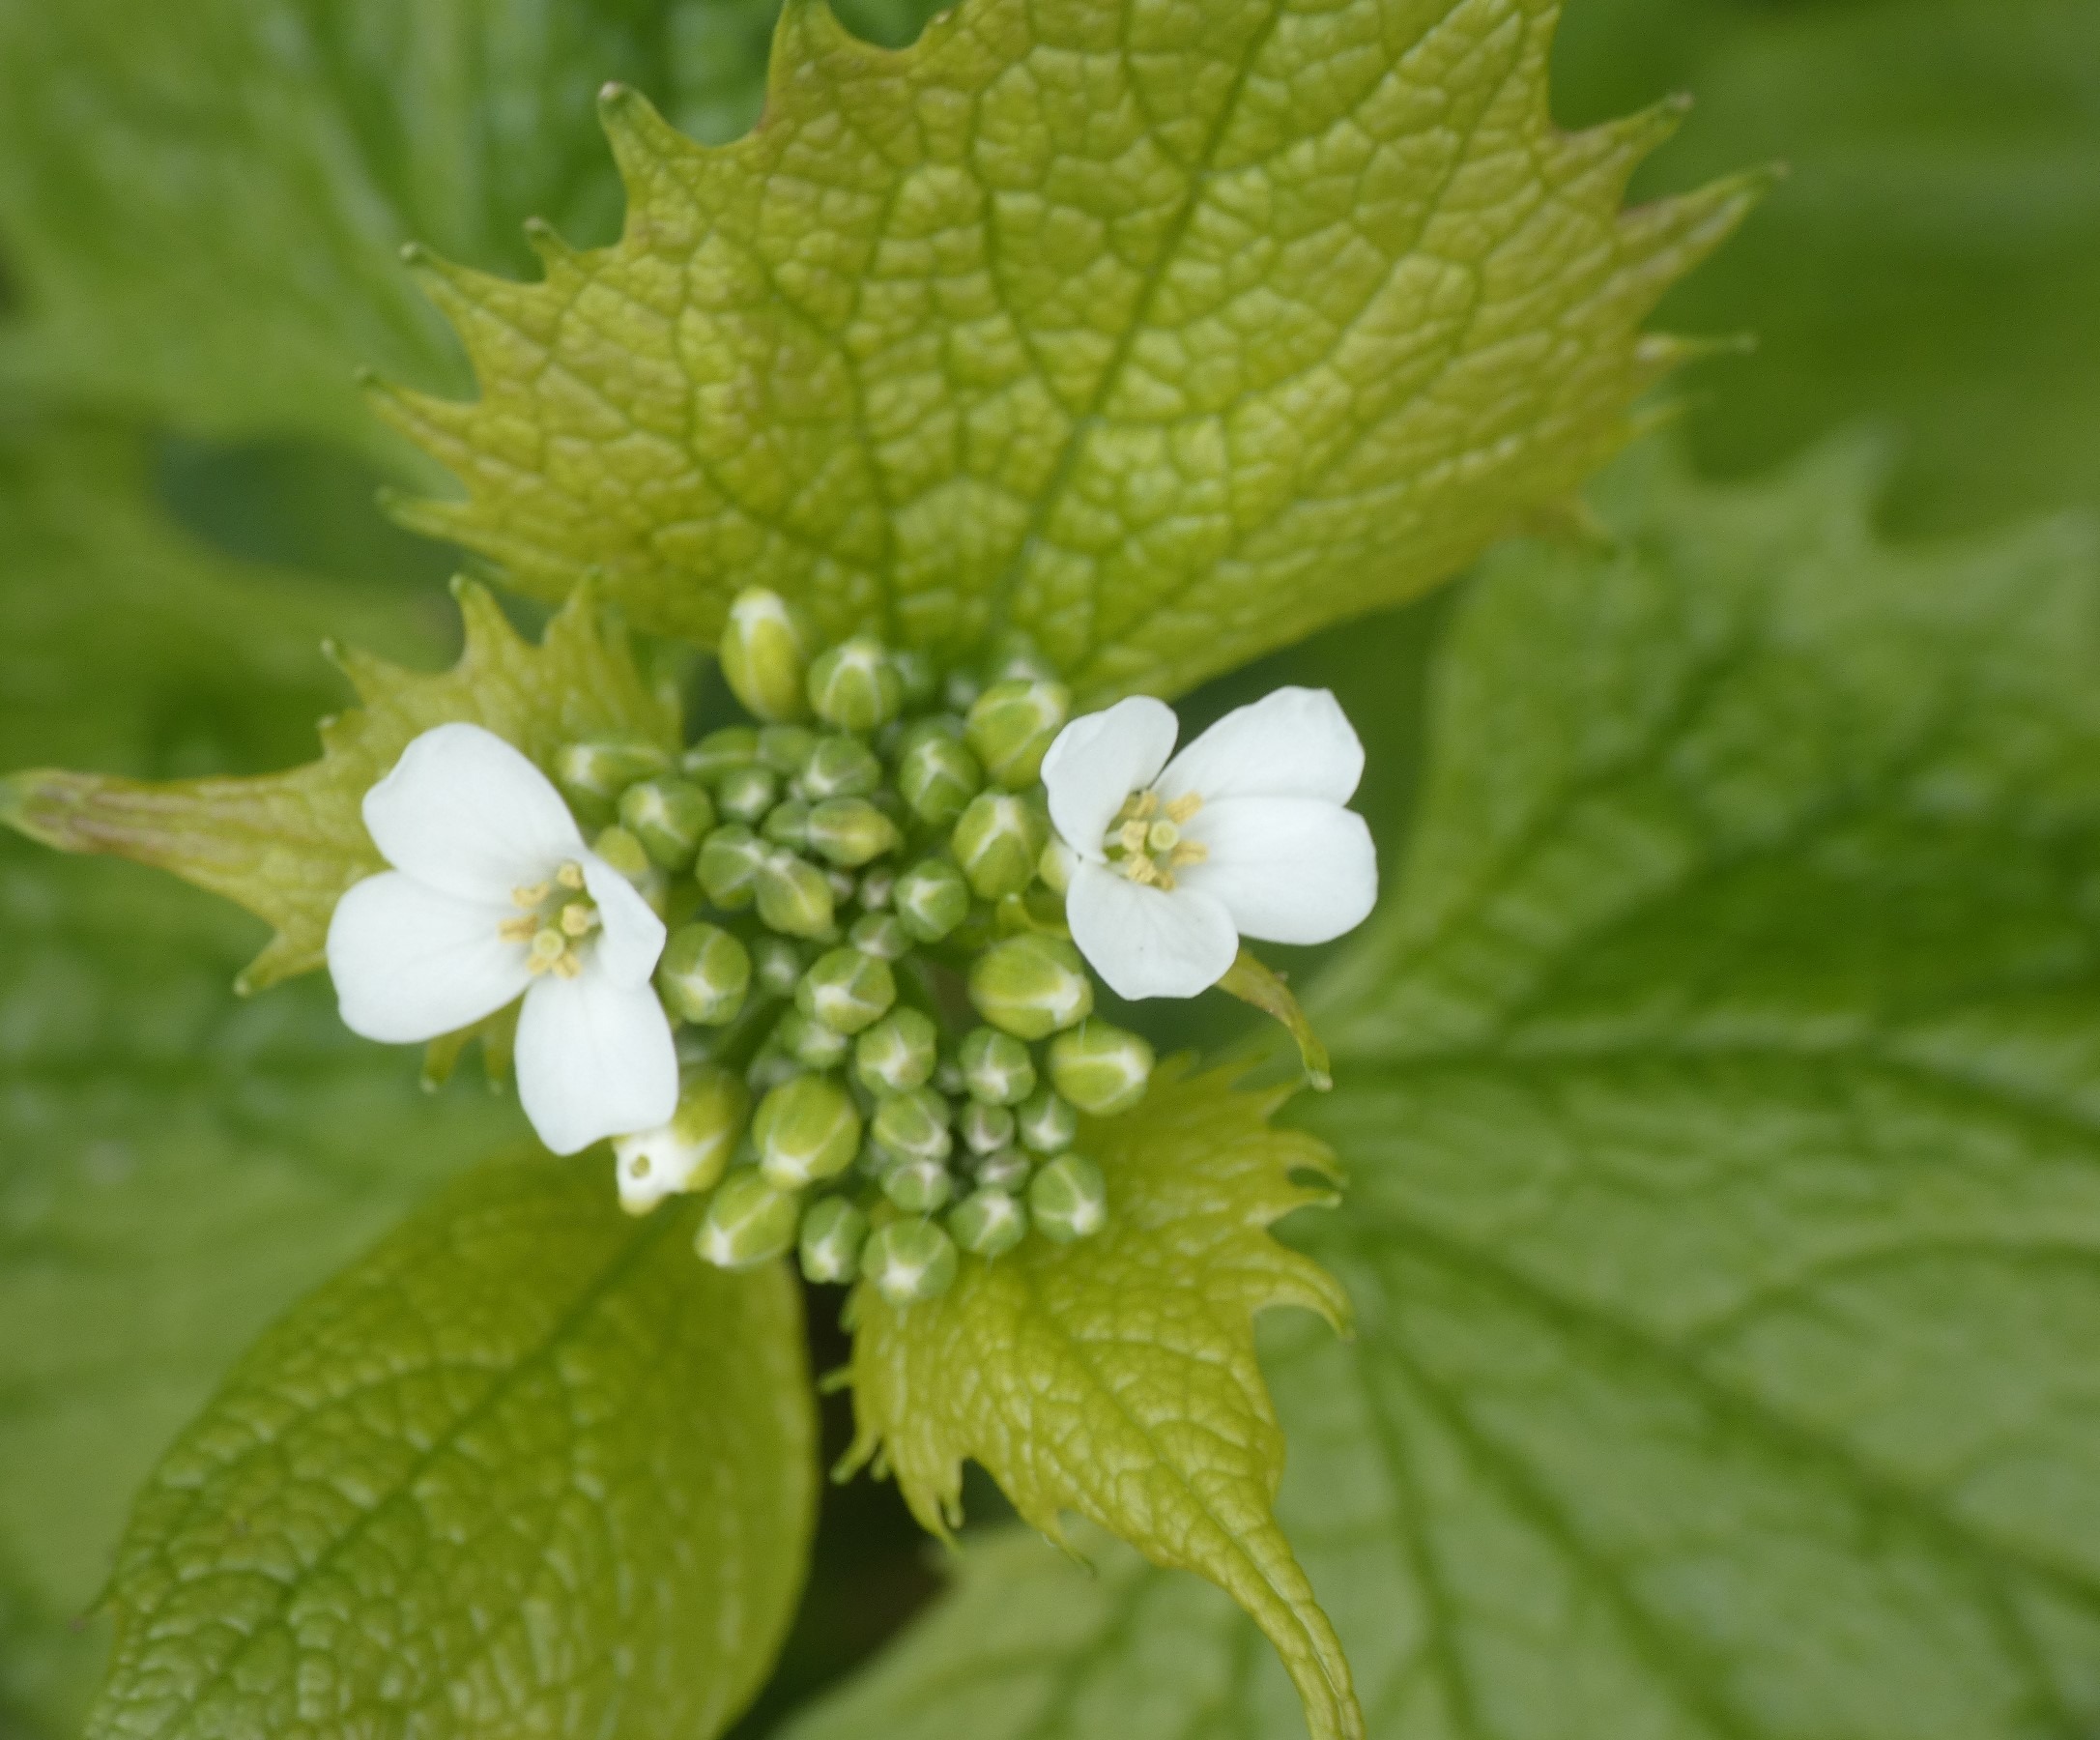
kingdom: Plantae
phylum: Tracheophyta
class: Magnoliopsida
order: Brassicales
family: Brassicaceae
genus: Alliaria
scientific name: Alliaria petiolata
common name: Løgkarse
